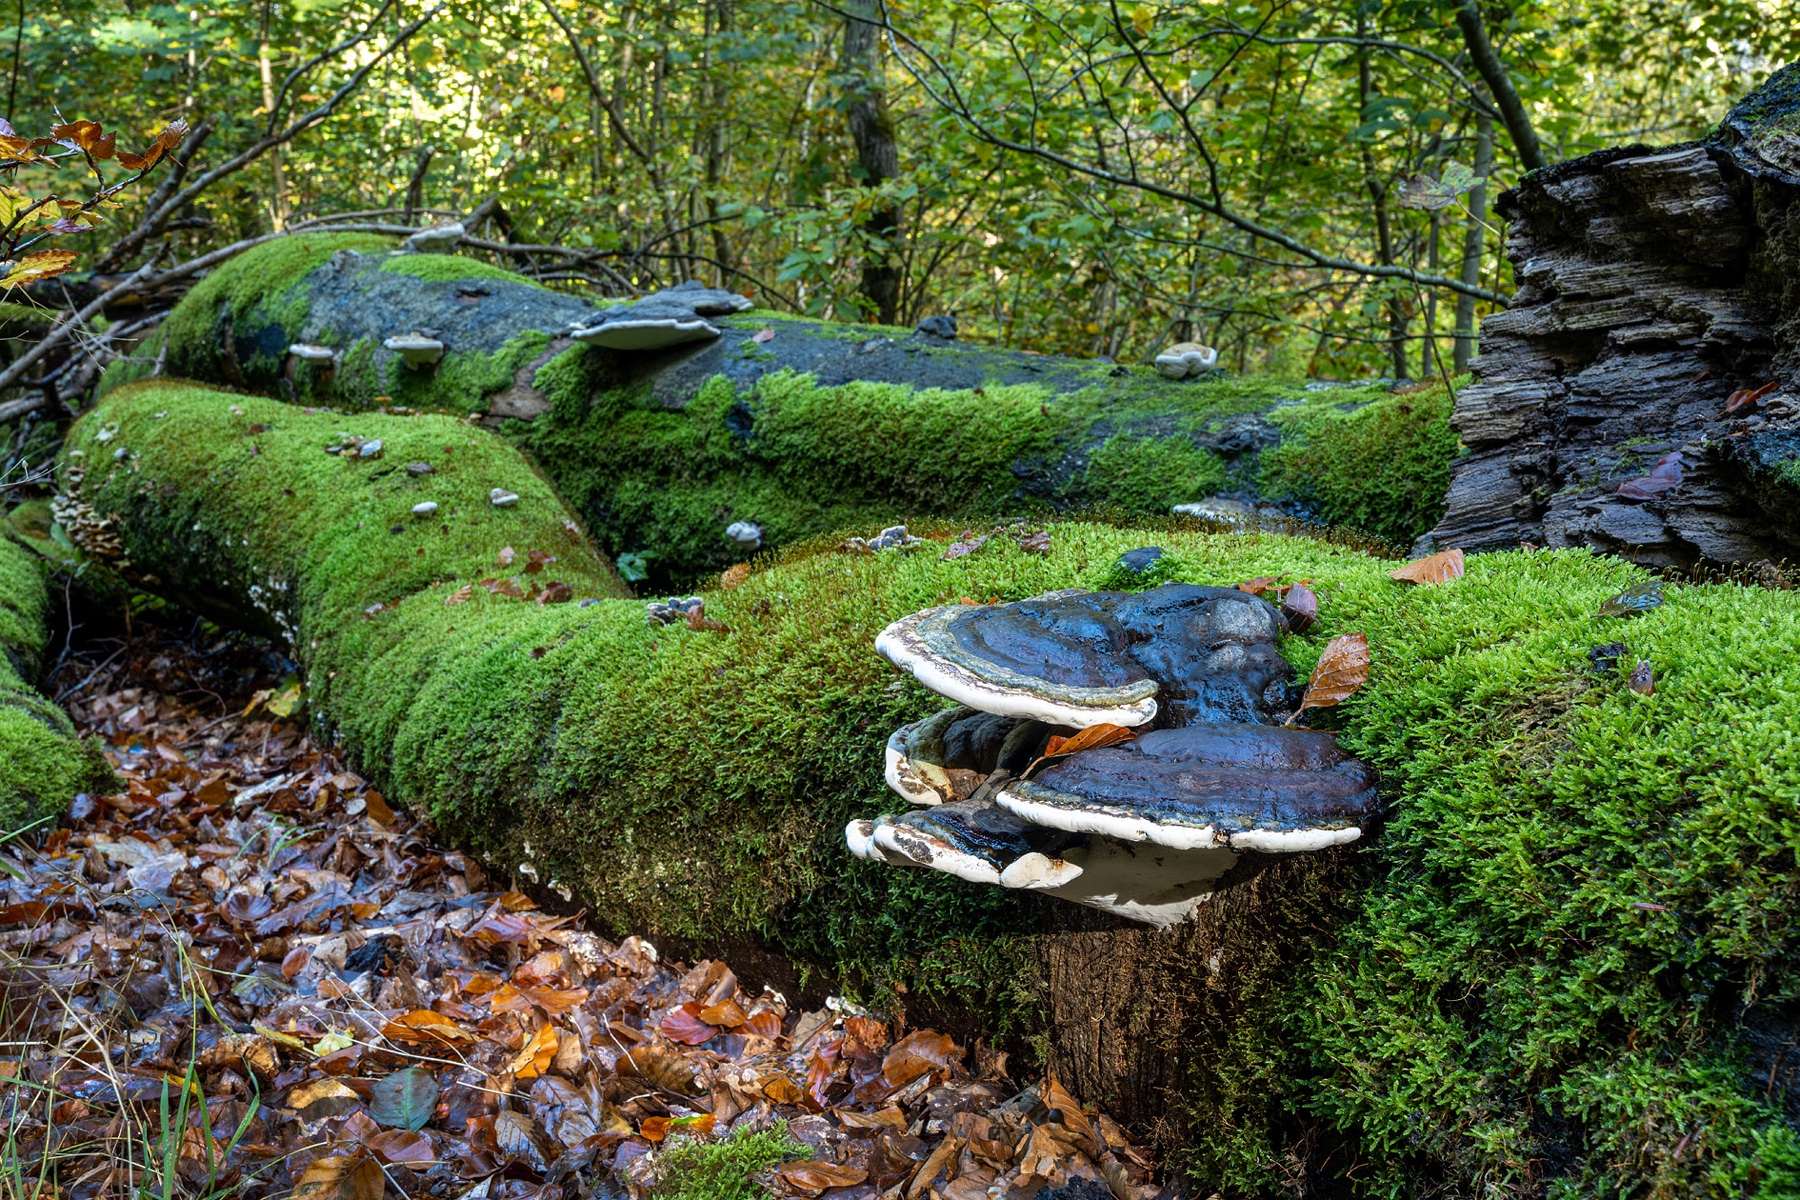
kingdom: Fungi
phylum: Basidiomycota
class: Agaricomycetes
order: Polyporales
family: Fomitopsidaceae
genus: Fomitopsis
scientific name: Fomitopsis pinicola
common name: randbæltet hovporesvamp
